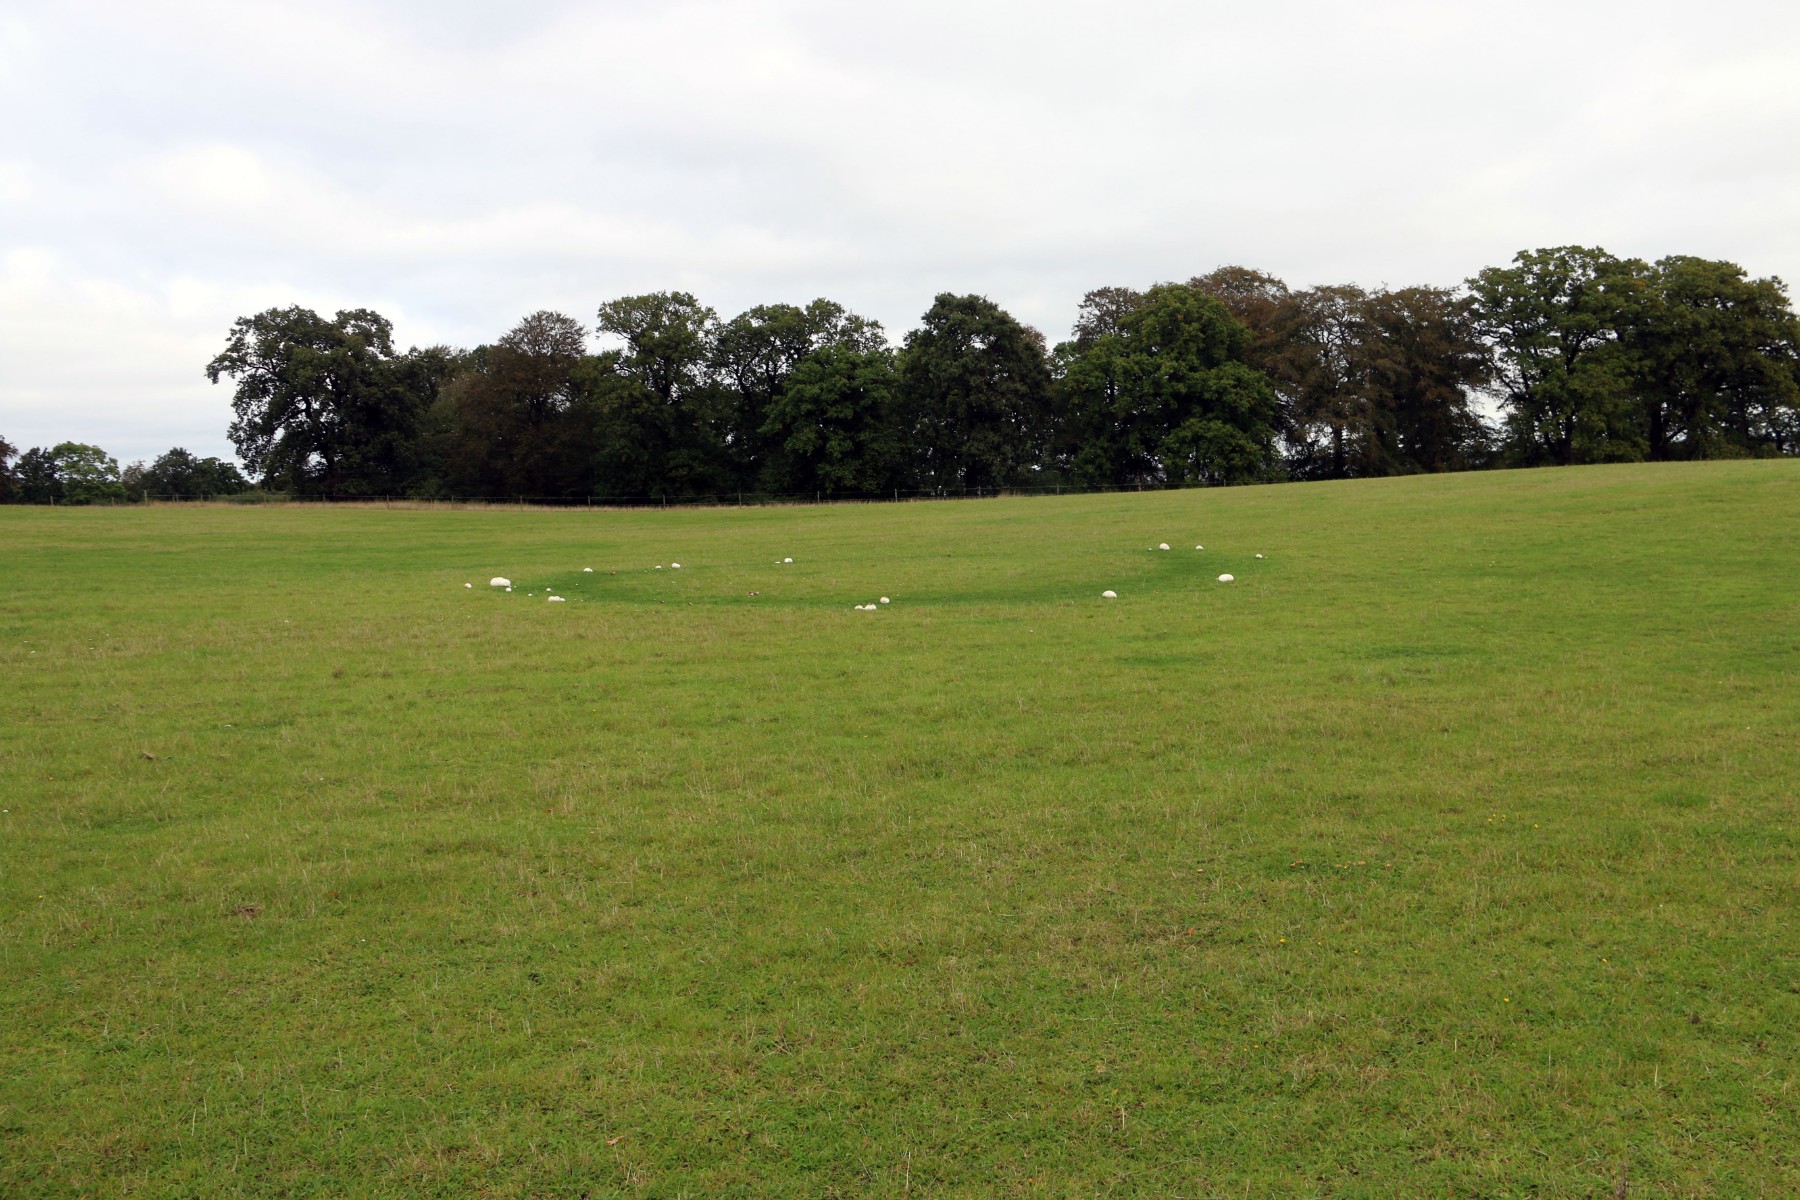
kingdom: Fungi
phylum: Basidiomycota
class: Agaricomycetes
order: Agaricales
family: Lycoperdaceae
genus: Calvatia
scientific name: Calvatia gigantea
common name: kæmpestøvbold
